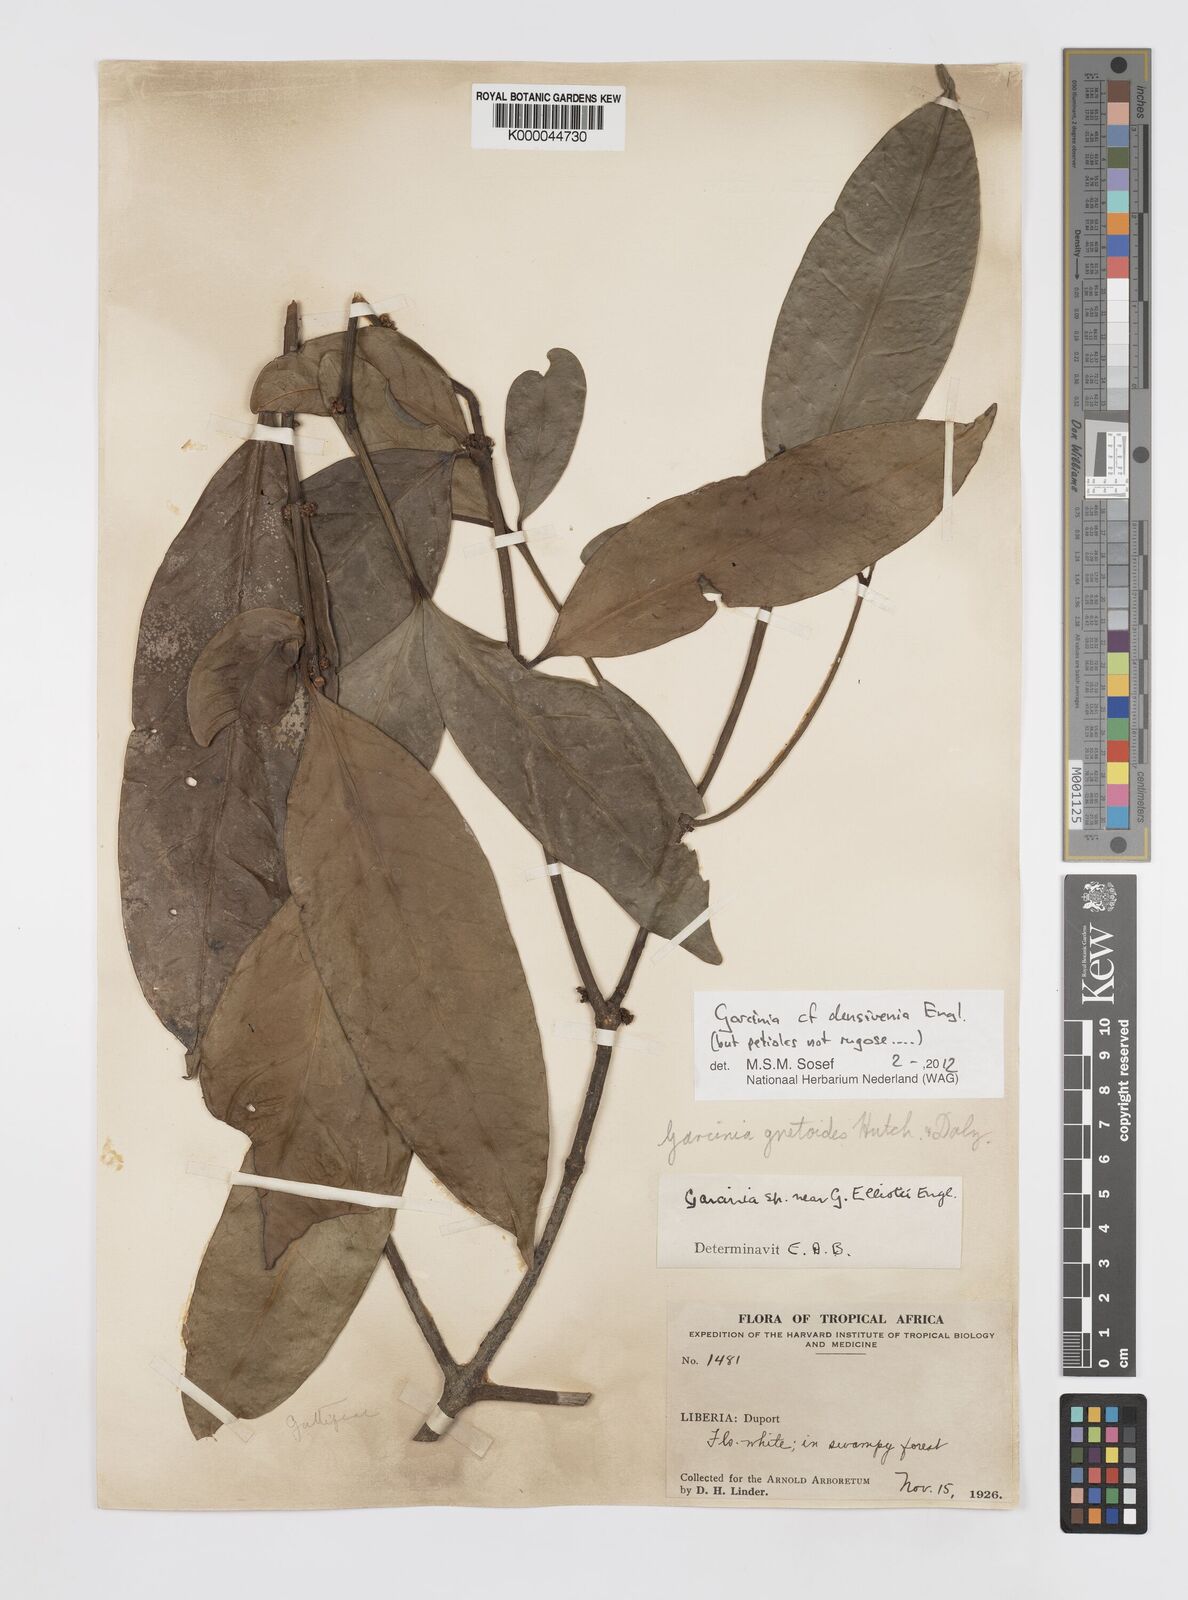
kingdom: Plantae
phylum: Tracheophyta
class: Magnoliopsida
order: Malpighiales
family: Clusiaceae
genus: Garcinia
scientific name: Garcinia gnetoides
